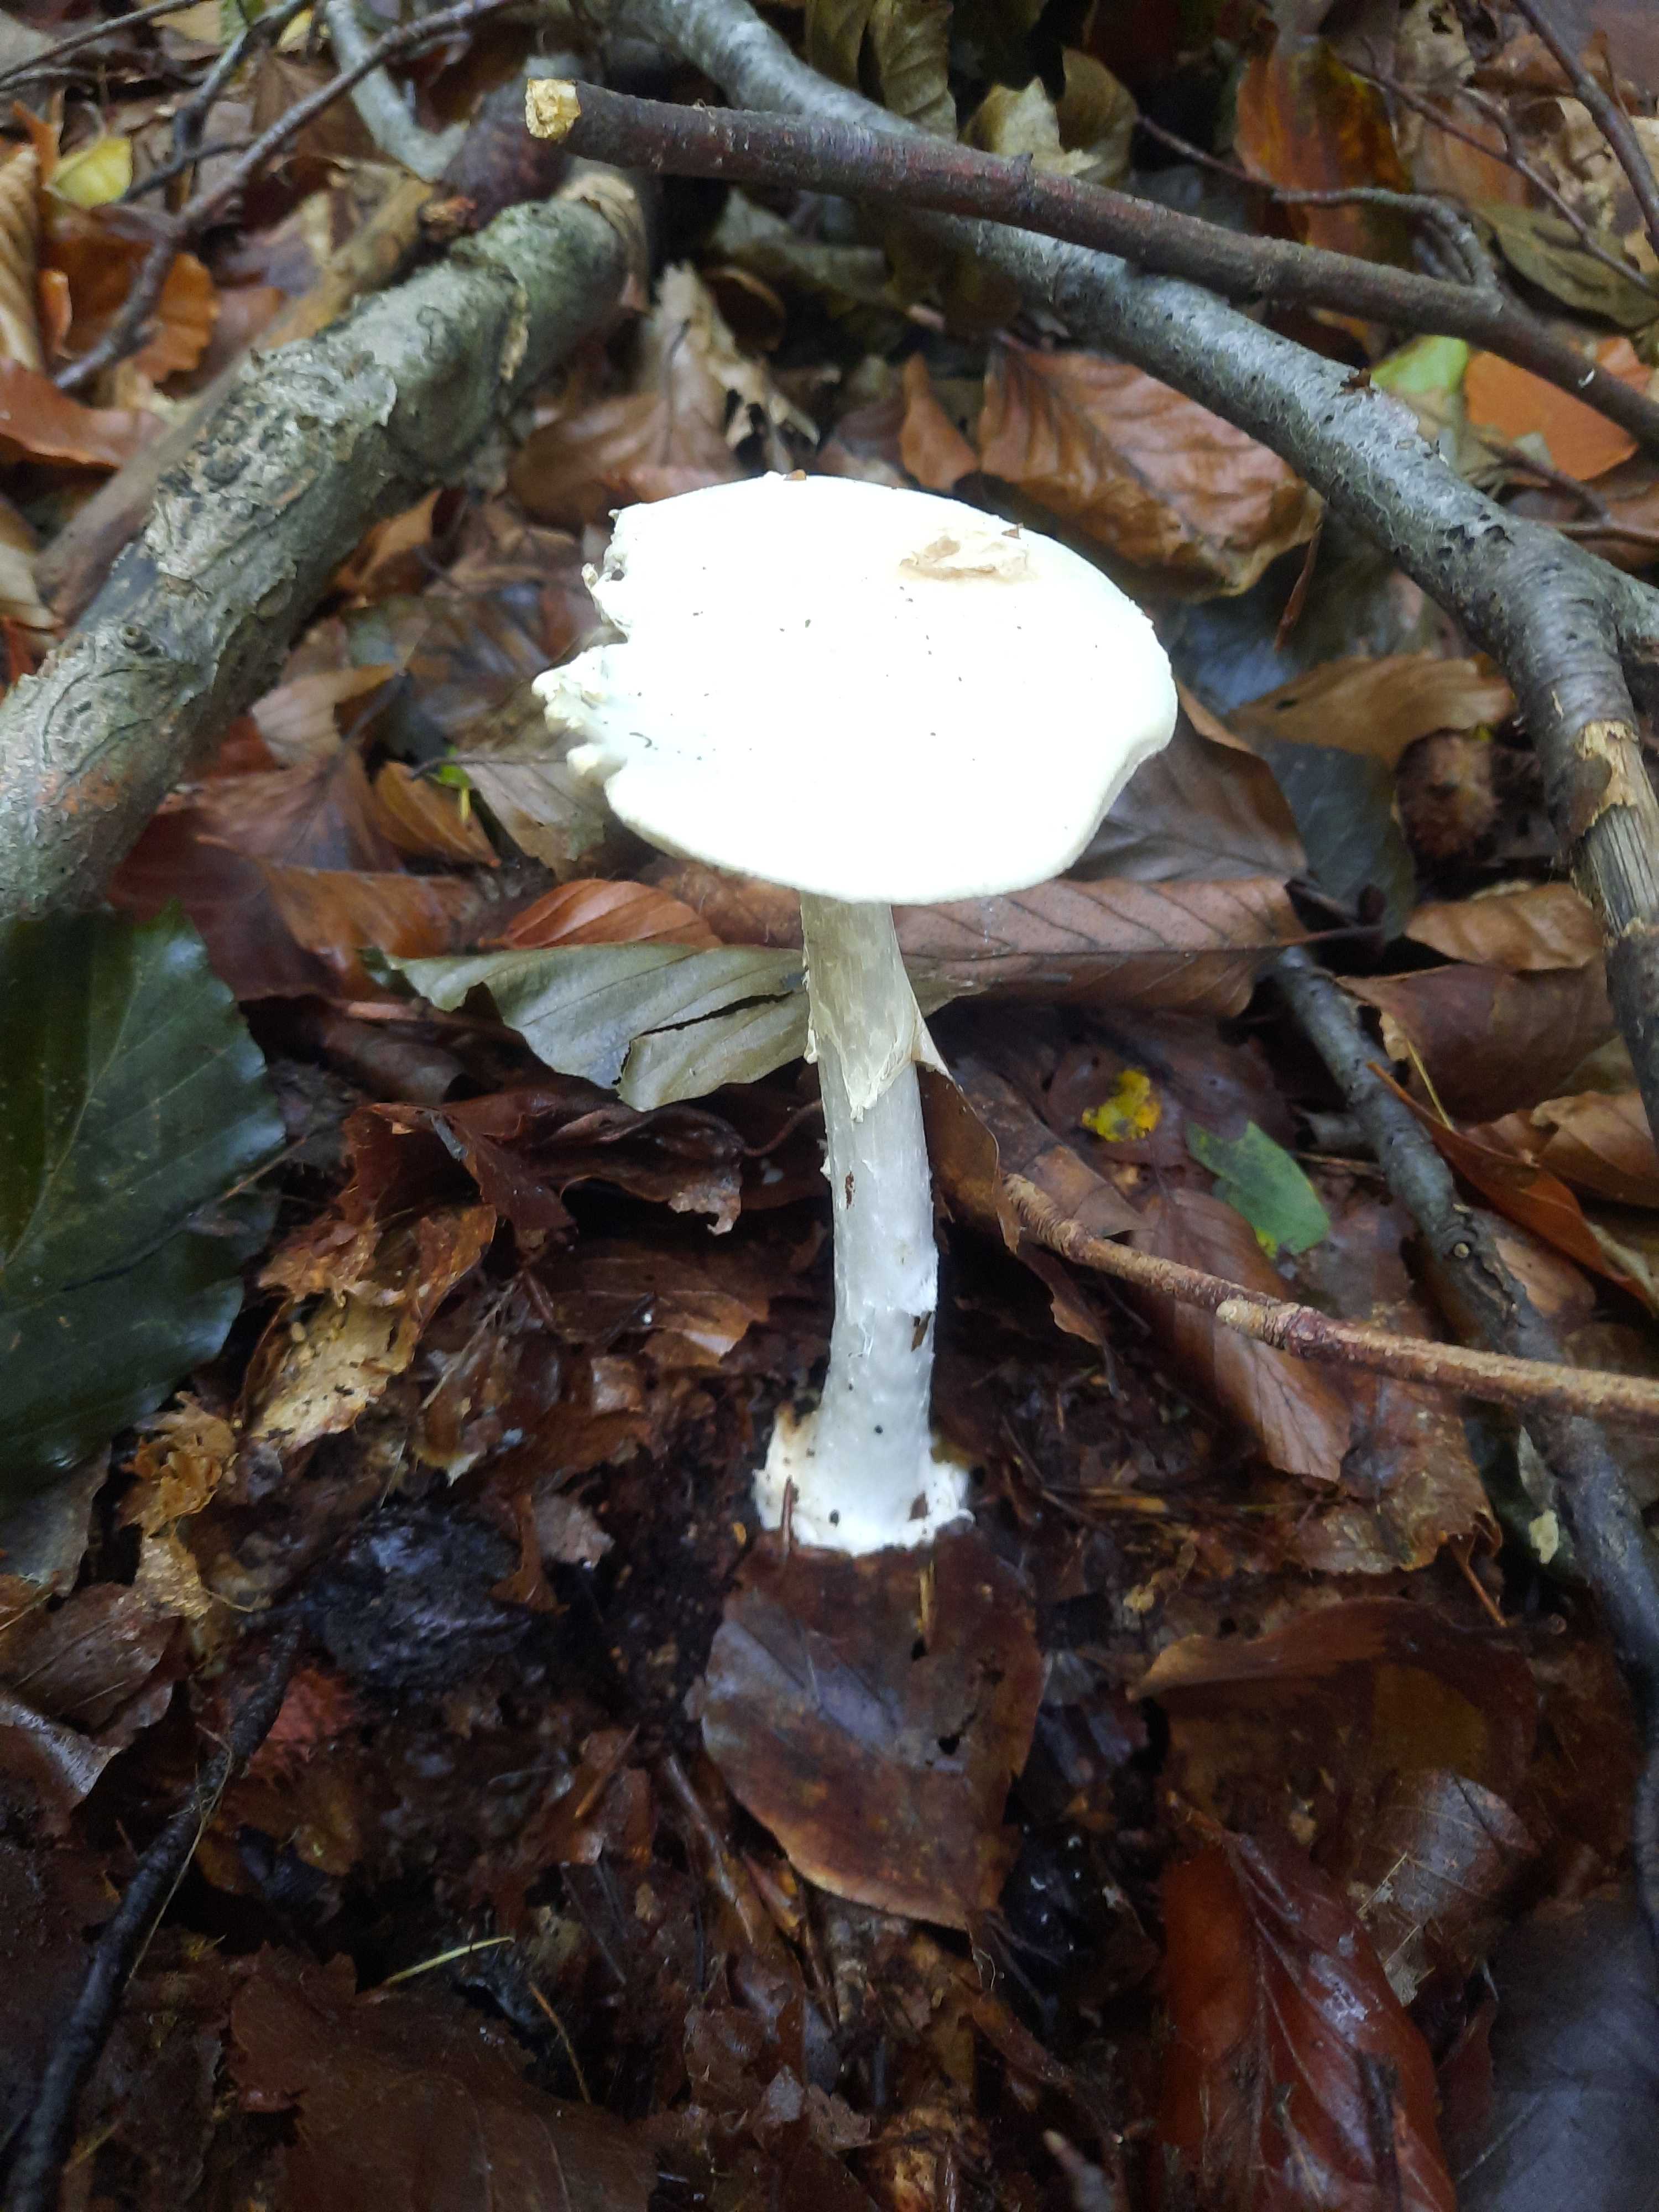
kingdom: Fungi
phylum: Basidiomycota
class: Agaricomycetes
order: Agaricales
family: Amanitaceae
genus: Amanita
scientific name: Amanita virosa
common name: snehvid fluesvamp
